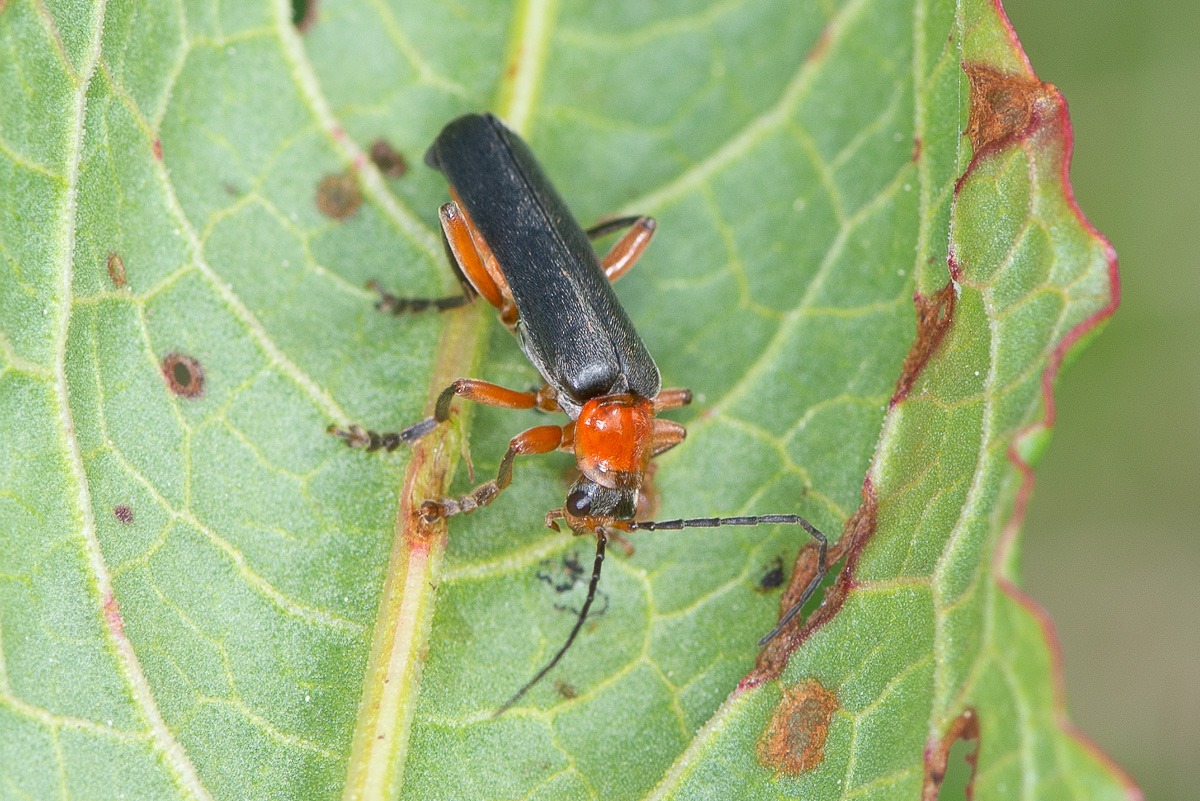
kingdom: Animalia
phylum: Arthropoda
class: Insecta
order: Coleoptera
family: Cantharidae
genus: Cantharis
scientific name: Cantharis pellucida
